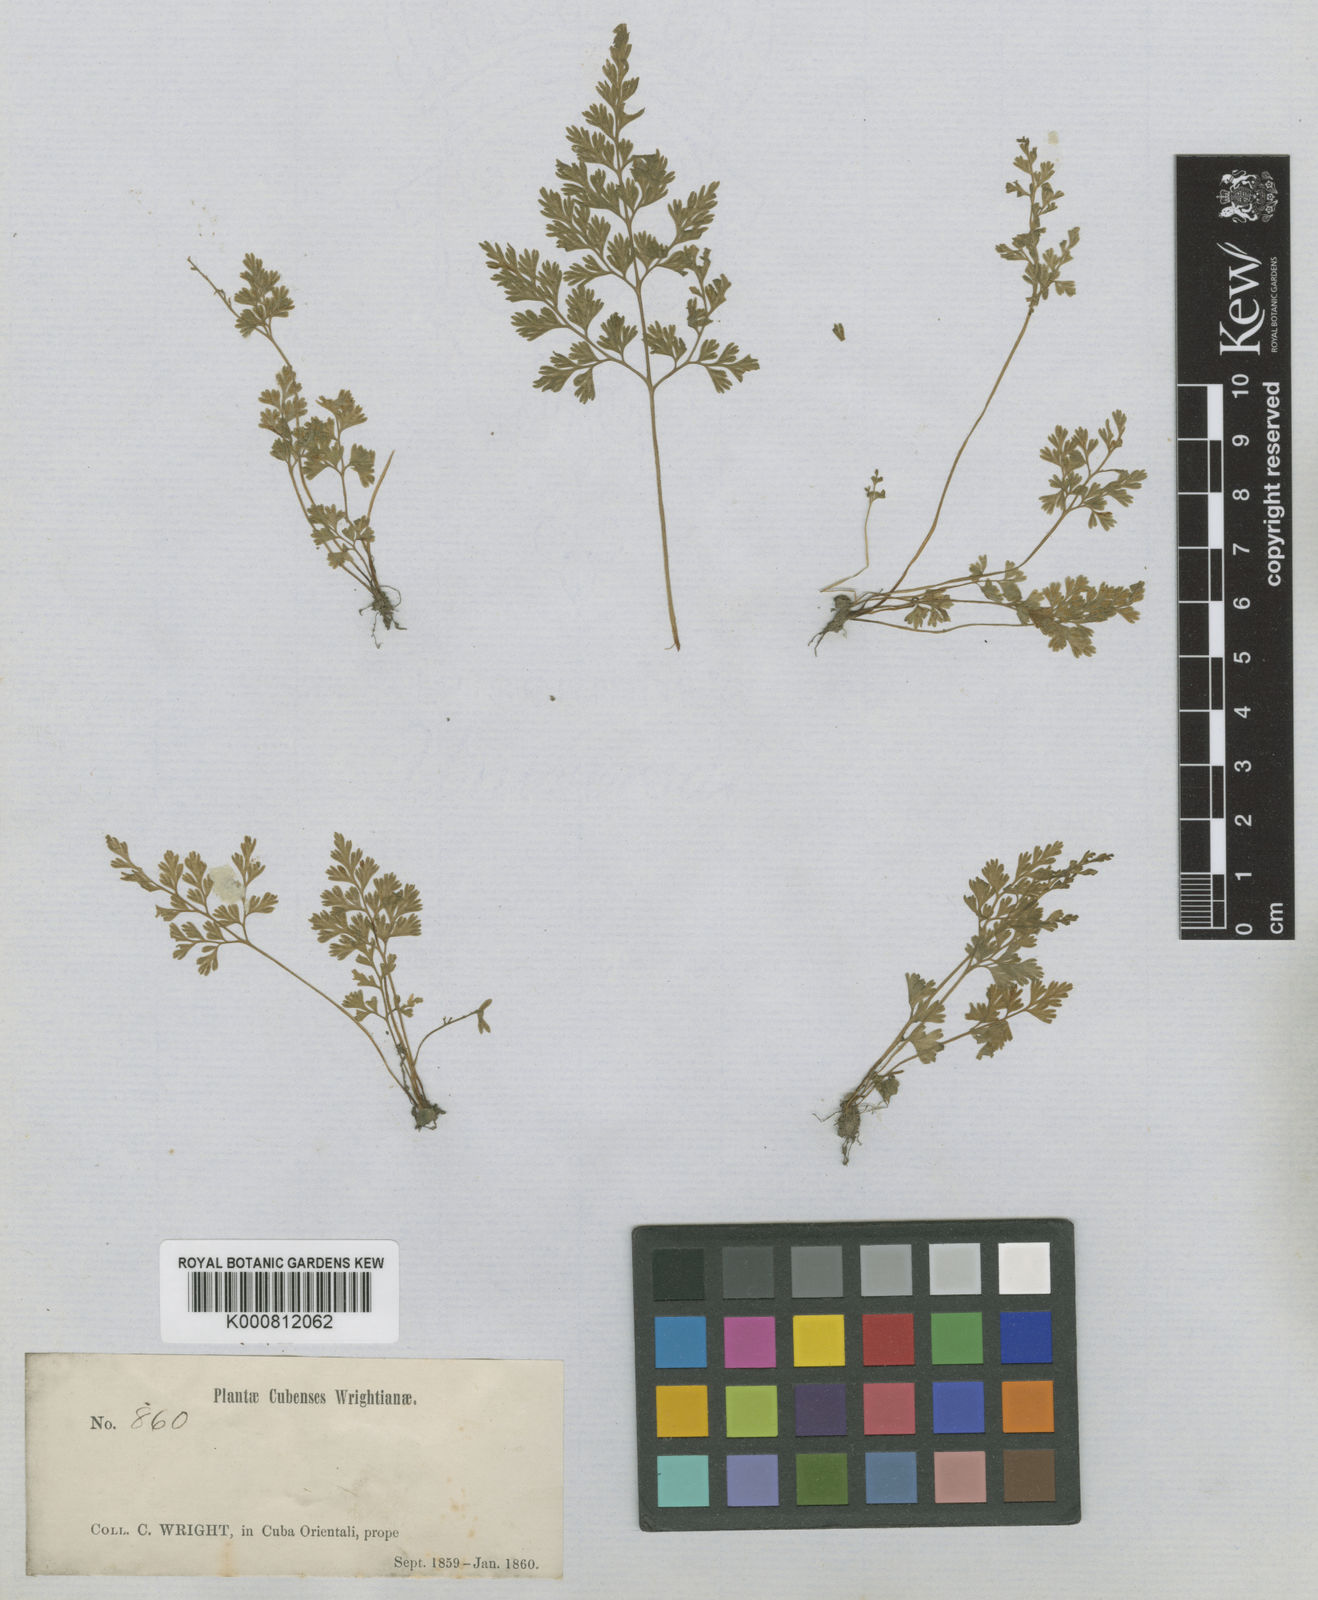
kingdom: Plantae
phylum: Tracheophyta
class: Polypodiopsida
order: Polypodiales
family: Pteridaceae
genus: Gastoniella
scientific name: Gastoniella chaerophylla
